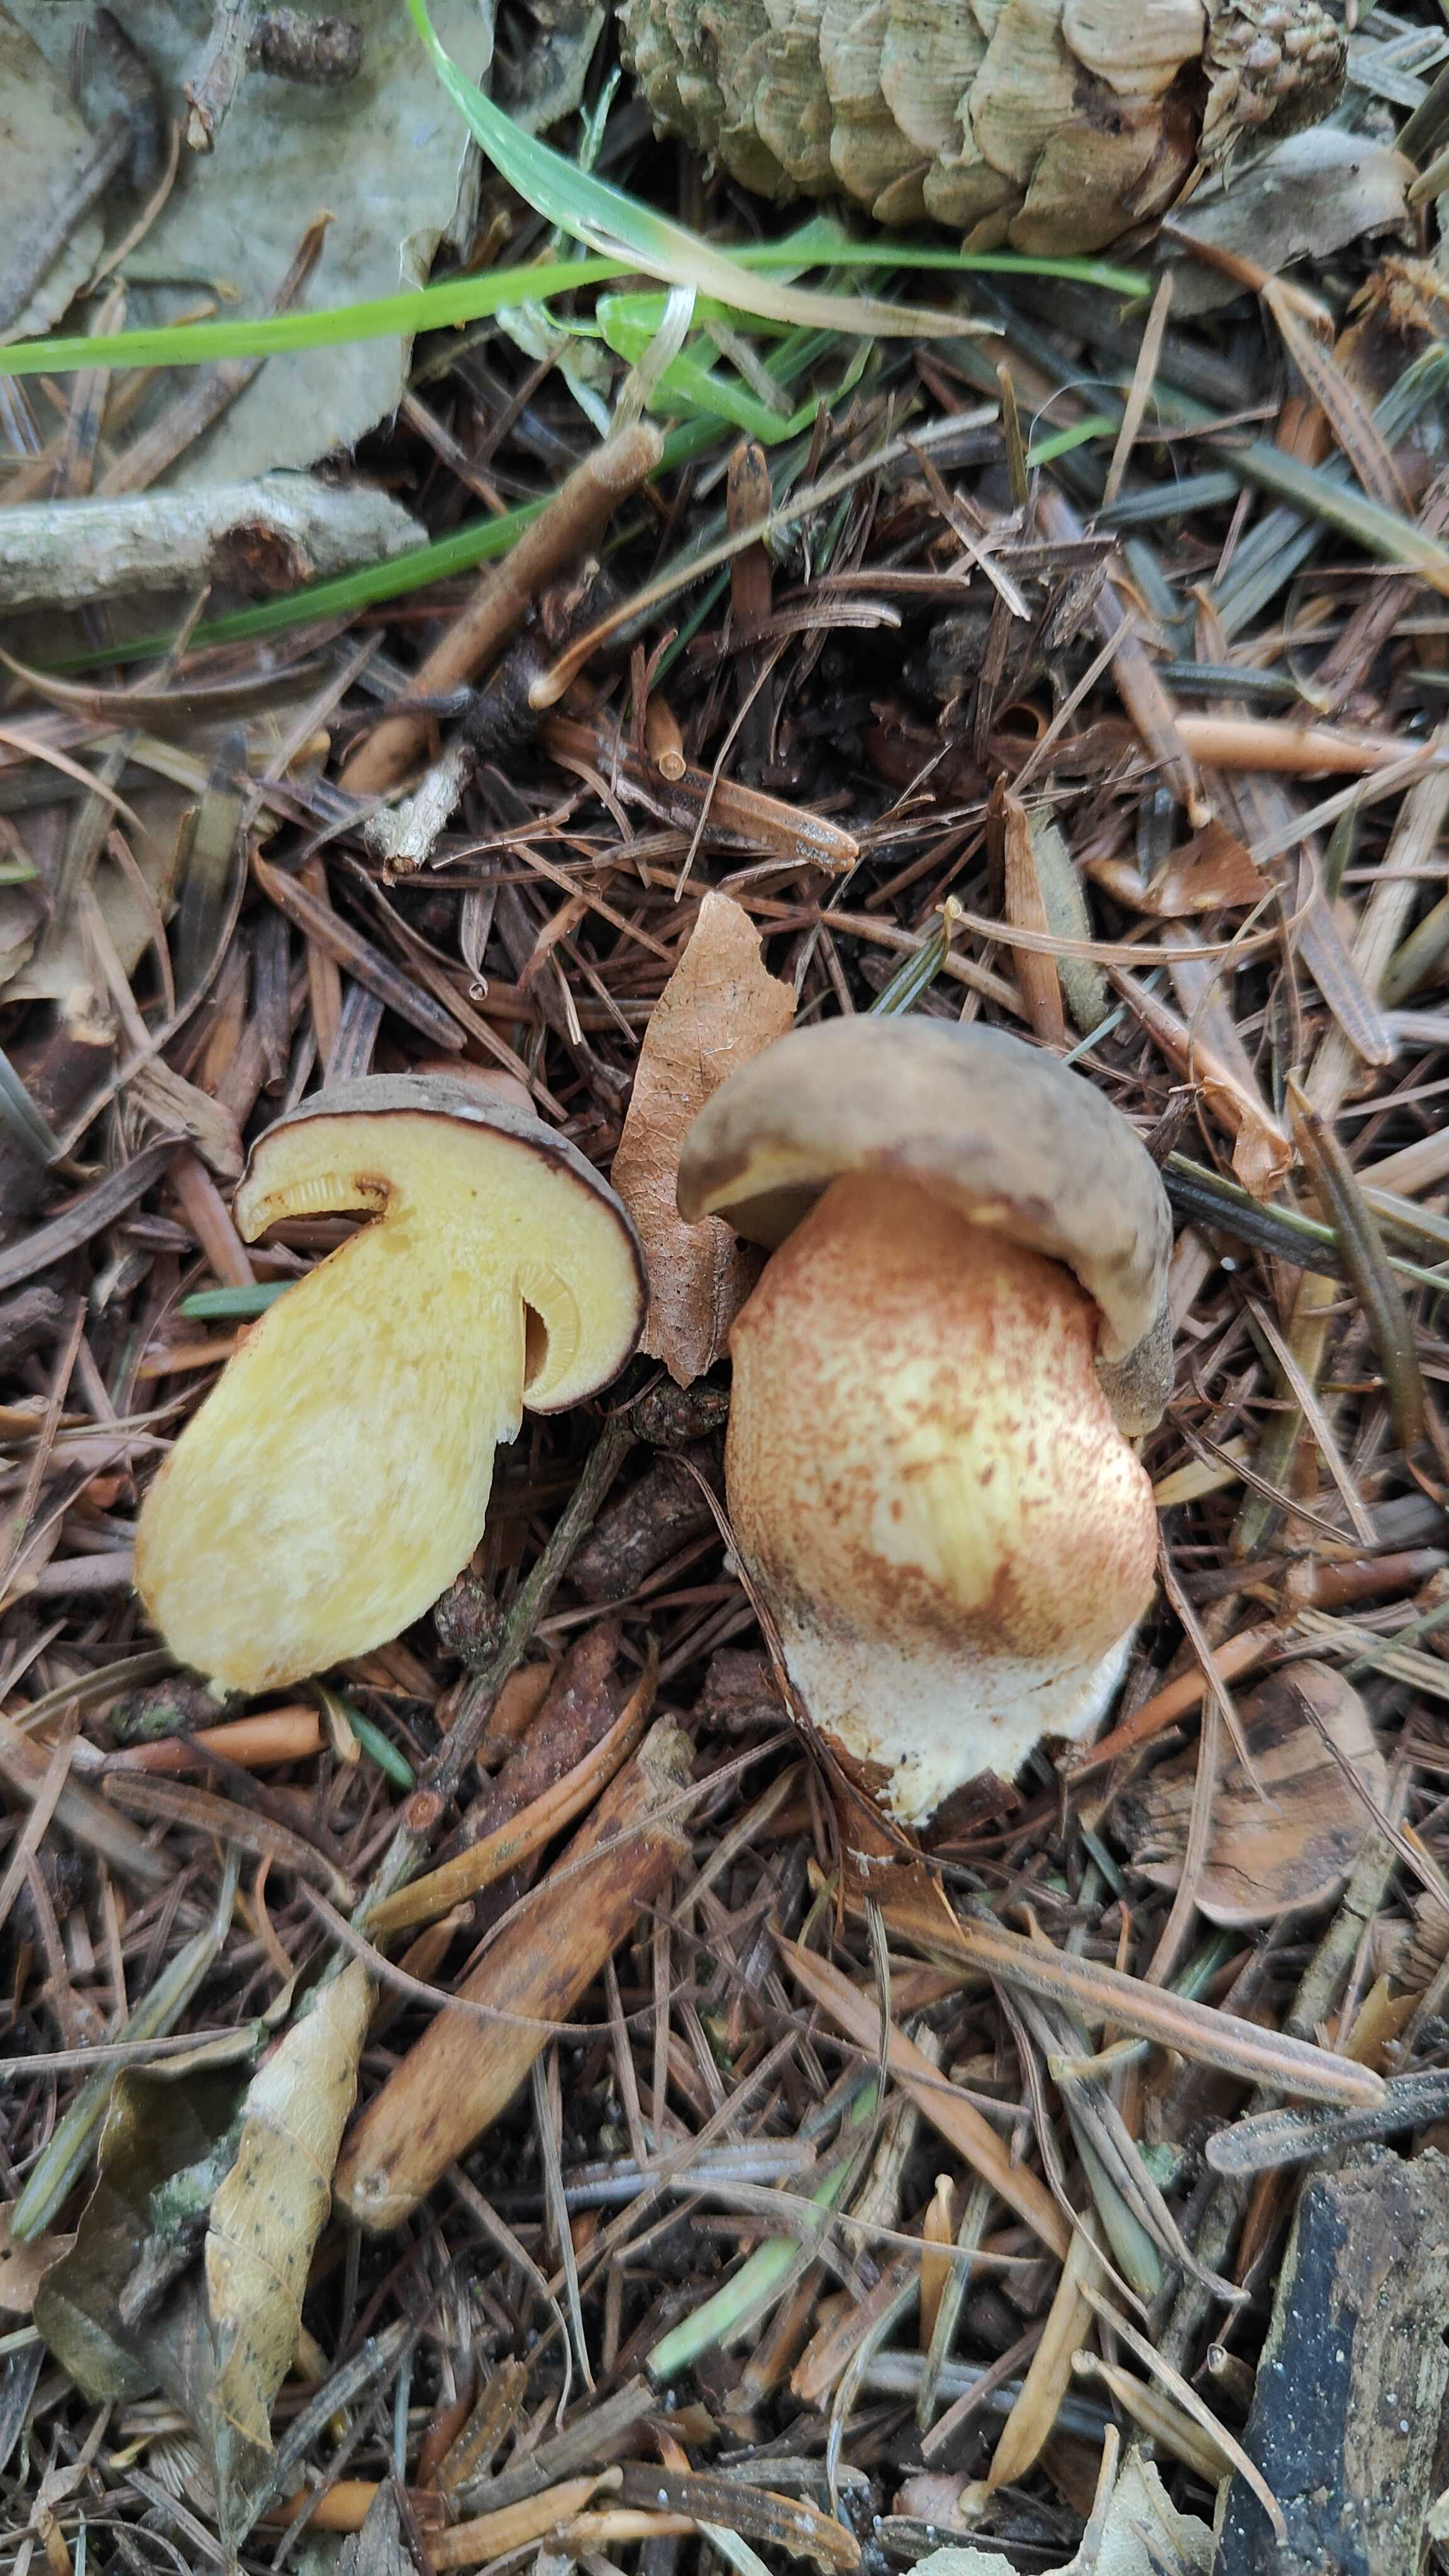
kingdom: Fungi
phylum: Basidiomycota
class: Agaricomycetes
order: Boletales
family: Boletaceae
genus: Xerocomellus
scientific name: Xerocomellus
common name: dværgrørhat
